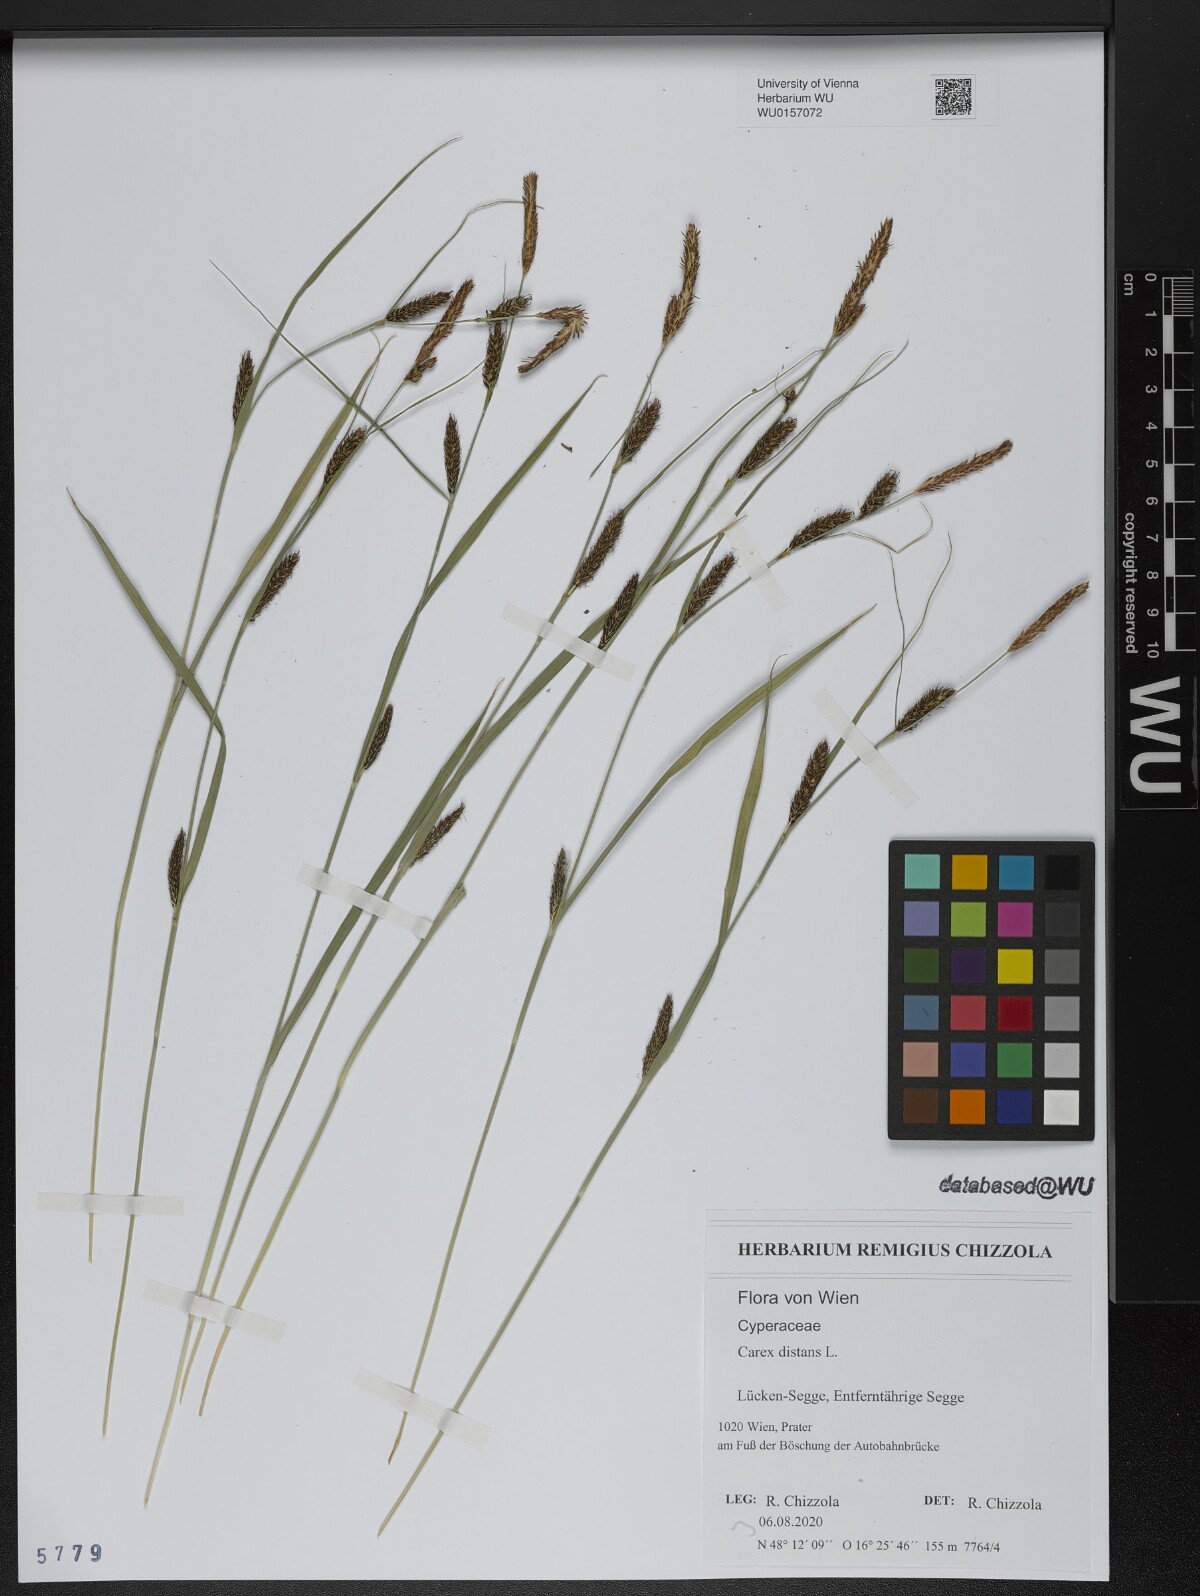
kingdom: Plantae
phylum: Tracheophyta
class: Liliopsida
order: Poales
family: Cyperaceae
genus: Carex
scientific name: Carex distans
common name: Distant sedge
